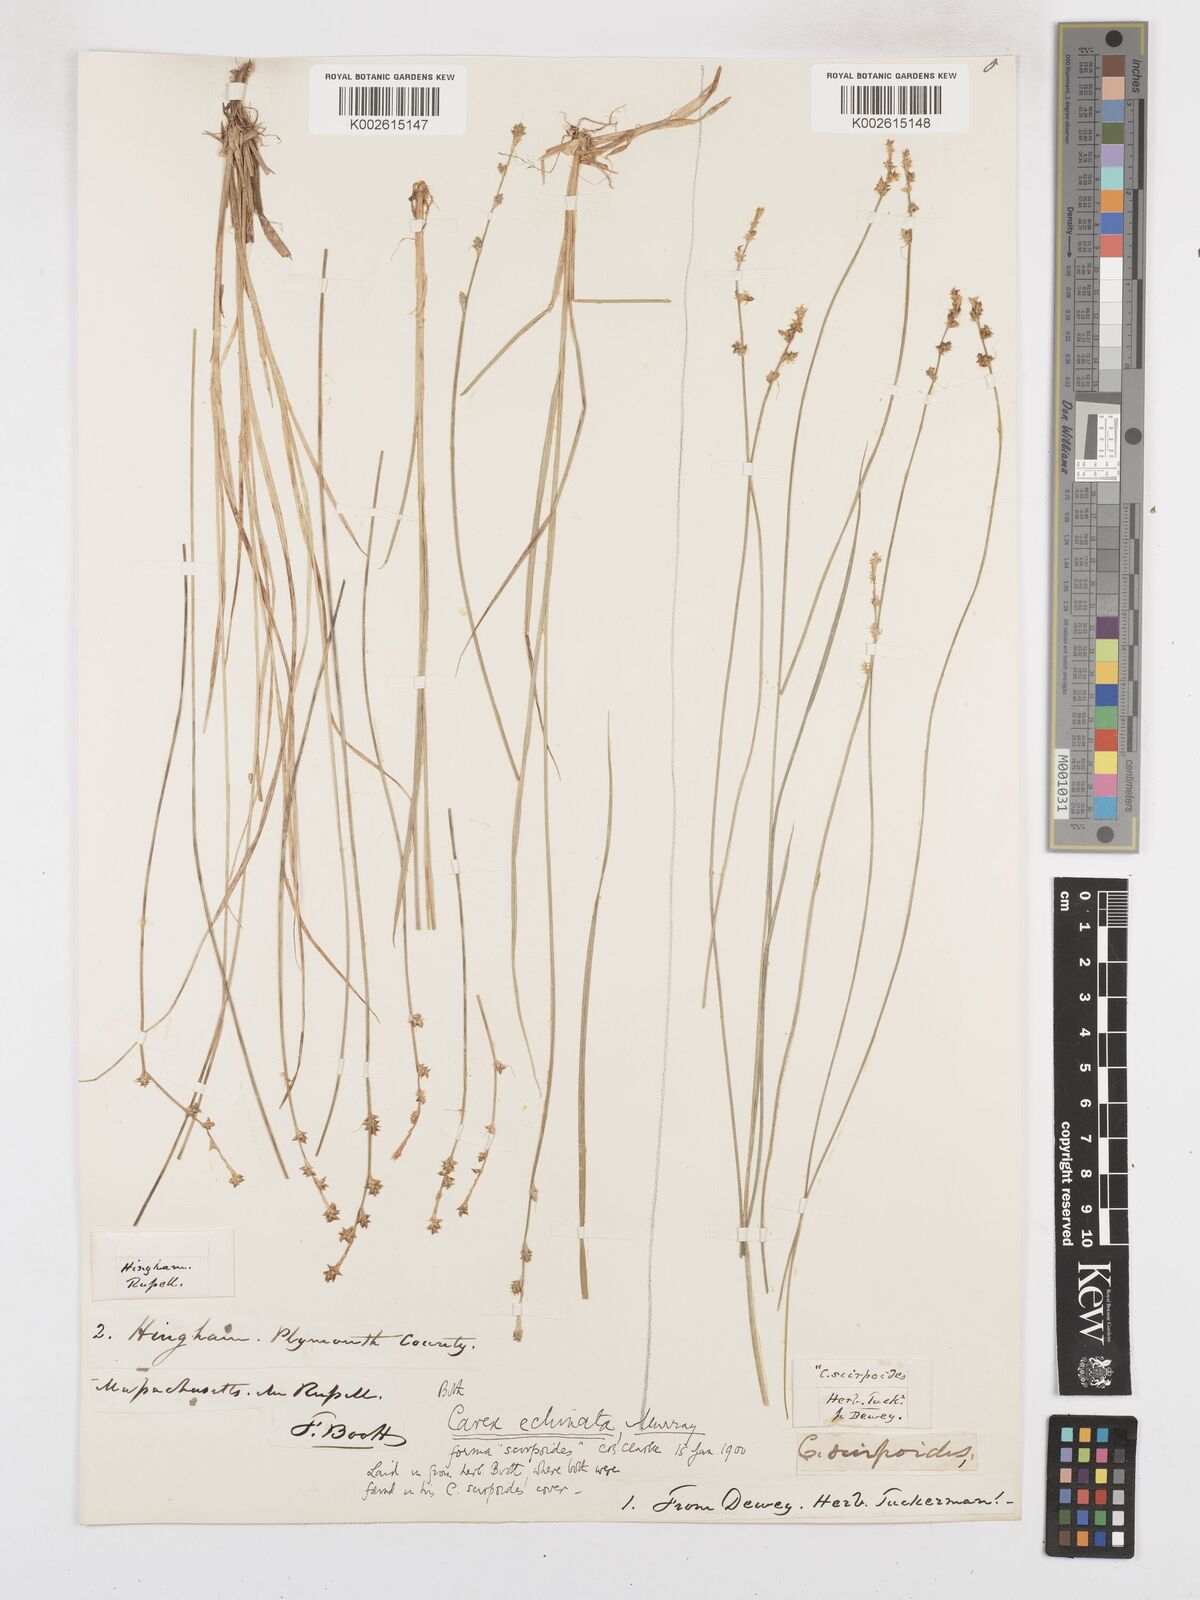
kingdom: Plantae
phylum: Tracheophyta
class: Liliopsida
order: Poales
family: Cyperaceae
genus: Carex
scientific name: Carex echinata
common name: Star sedge
